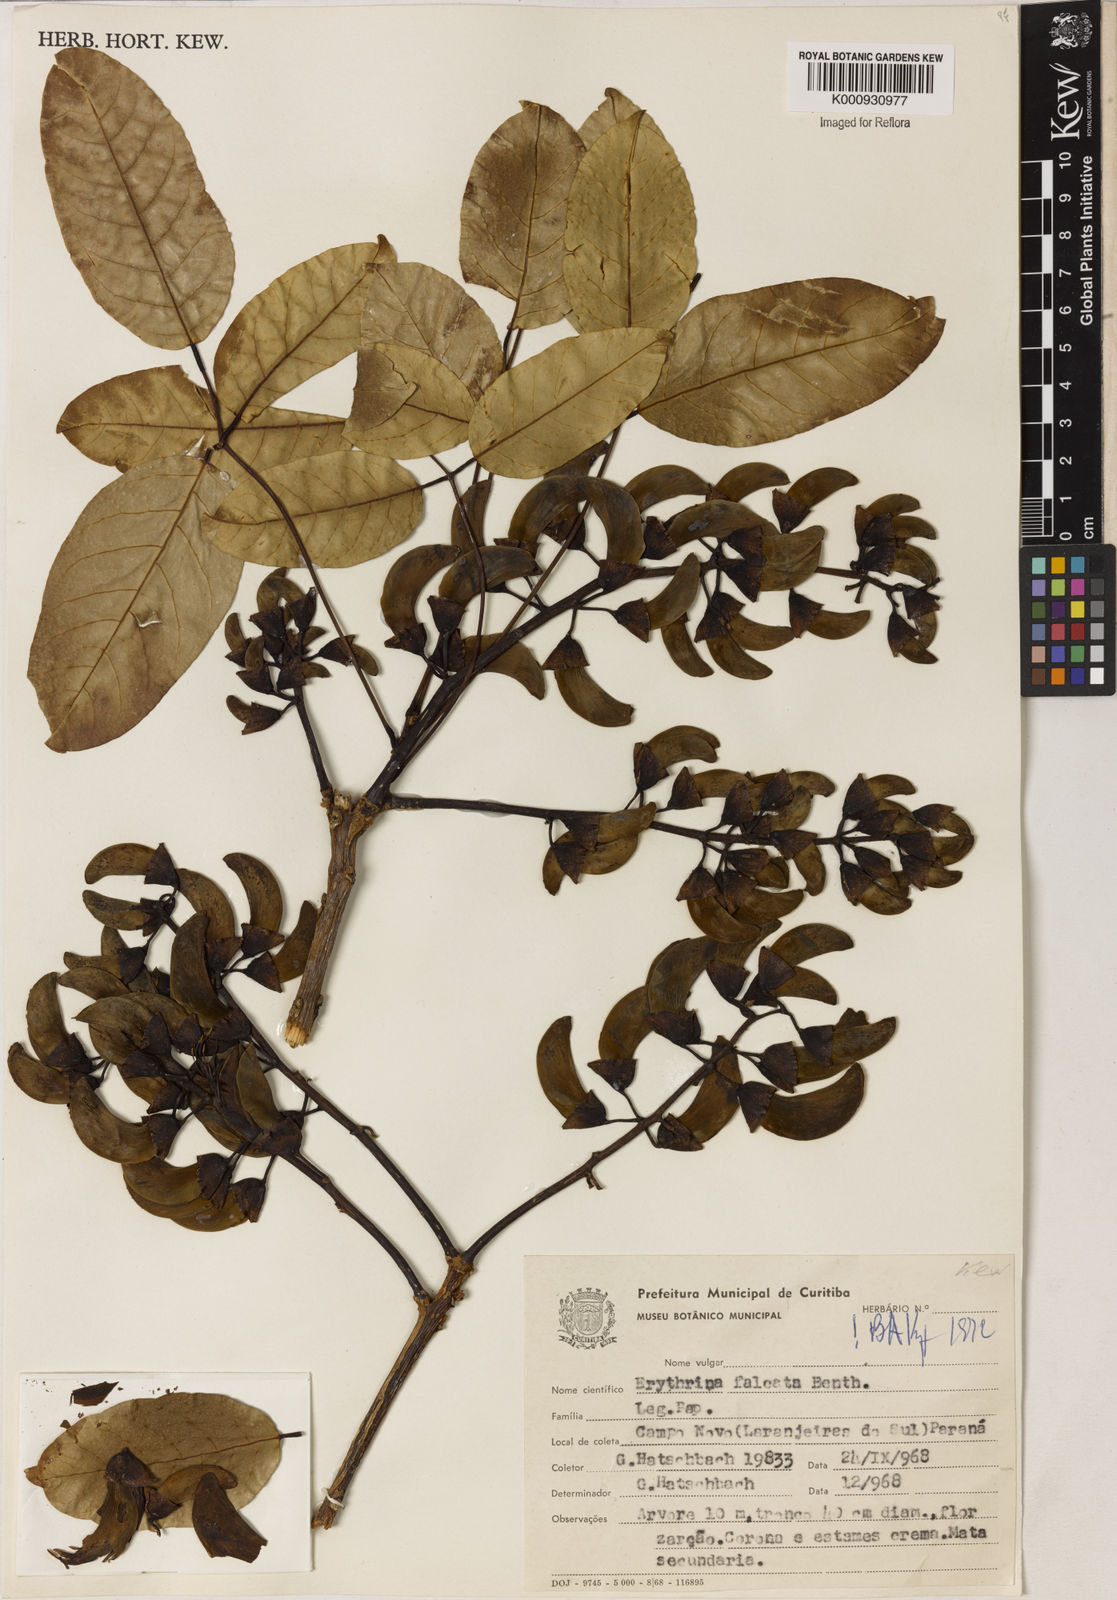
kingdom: Plantae
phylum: Tracheophyta
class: Magnoliopsida
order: Fabales
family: Fabaceae
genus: Erythrina
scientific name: Erythrina falcata
